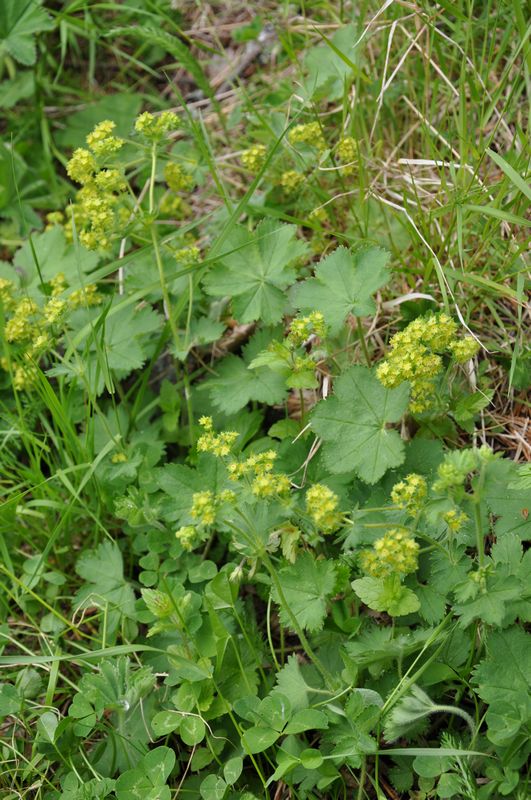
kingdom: Plantae
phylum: Tracheophyta
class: Magnoliopsida
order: Rosales
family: Rosaceae
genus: Alchemilla
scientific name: Alchemilla xanthochlora
